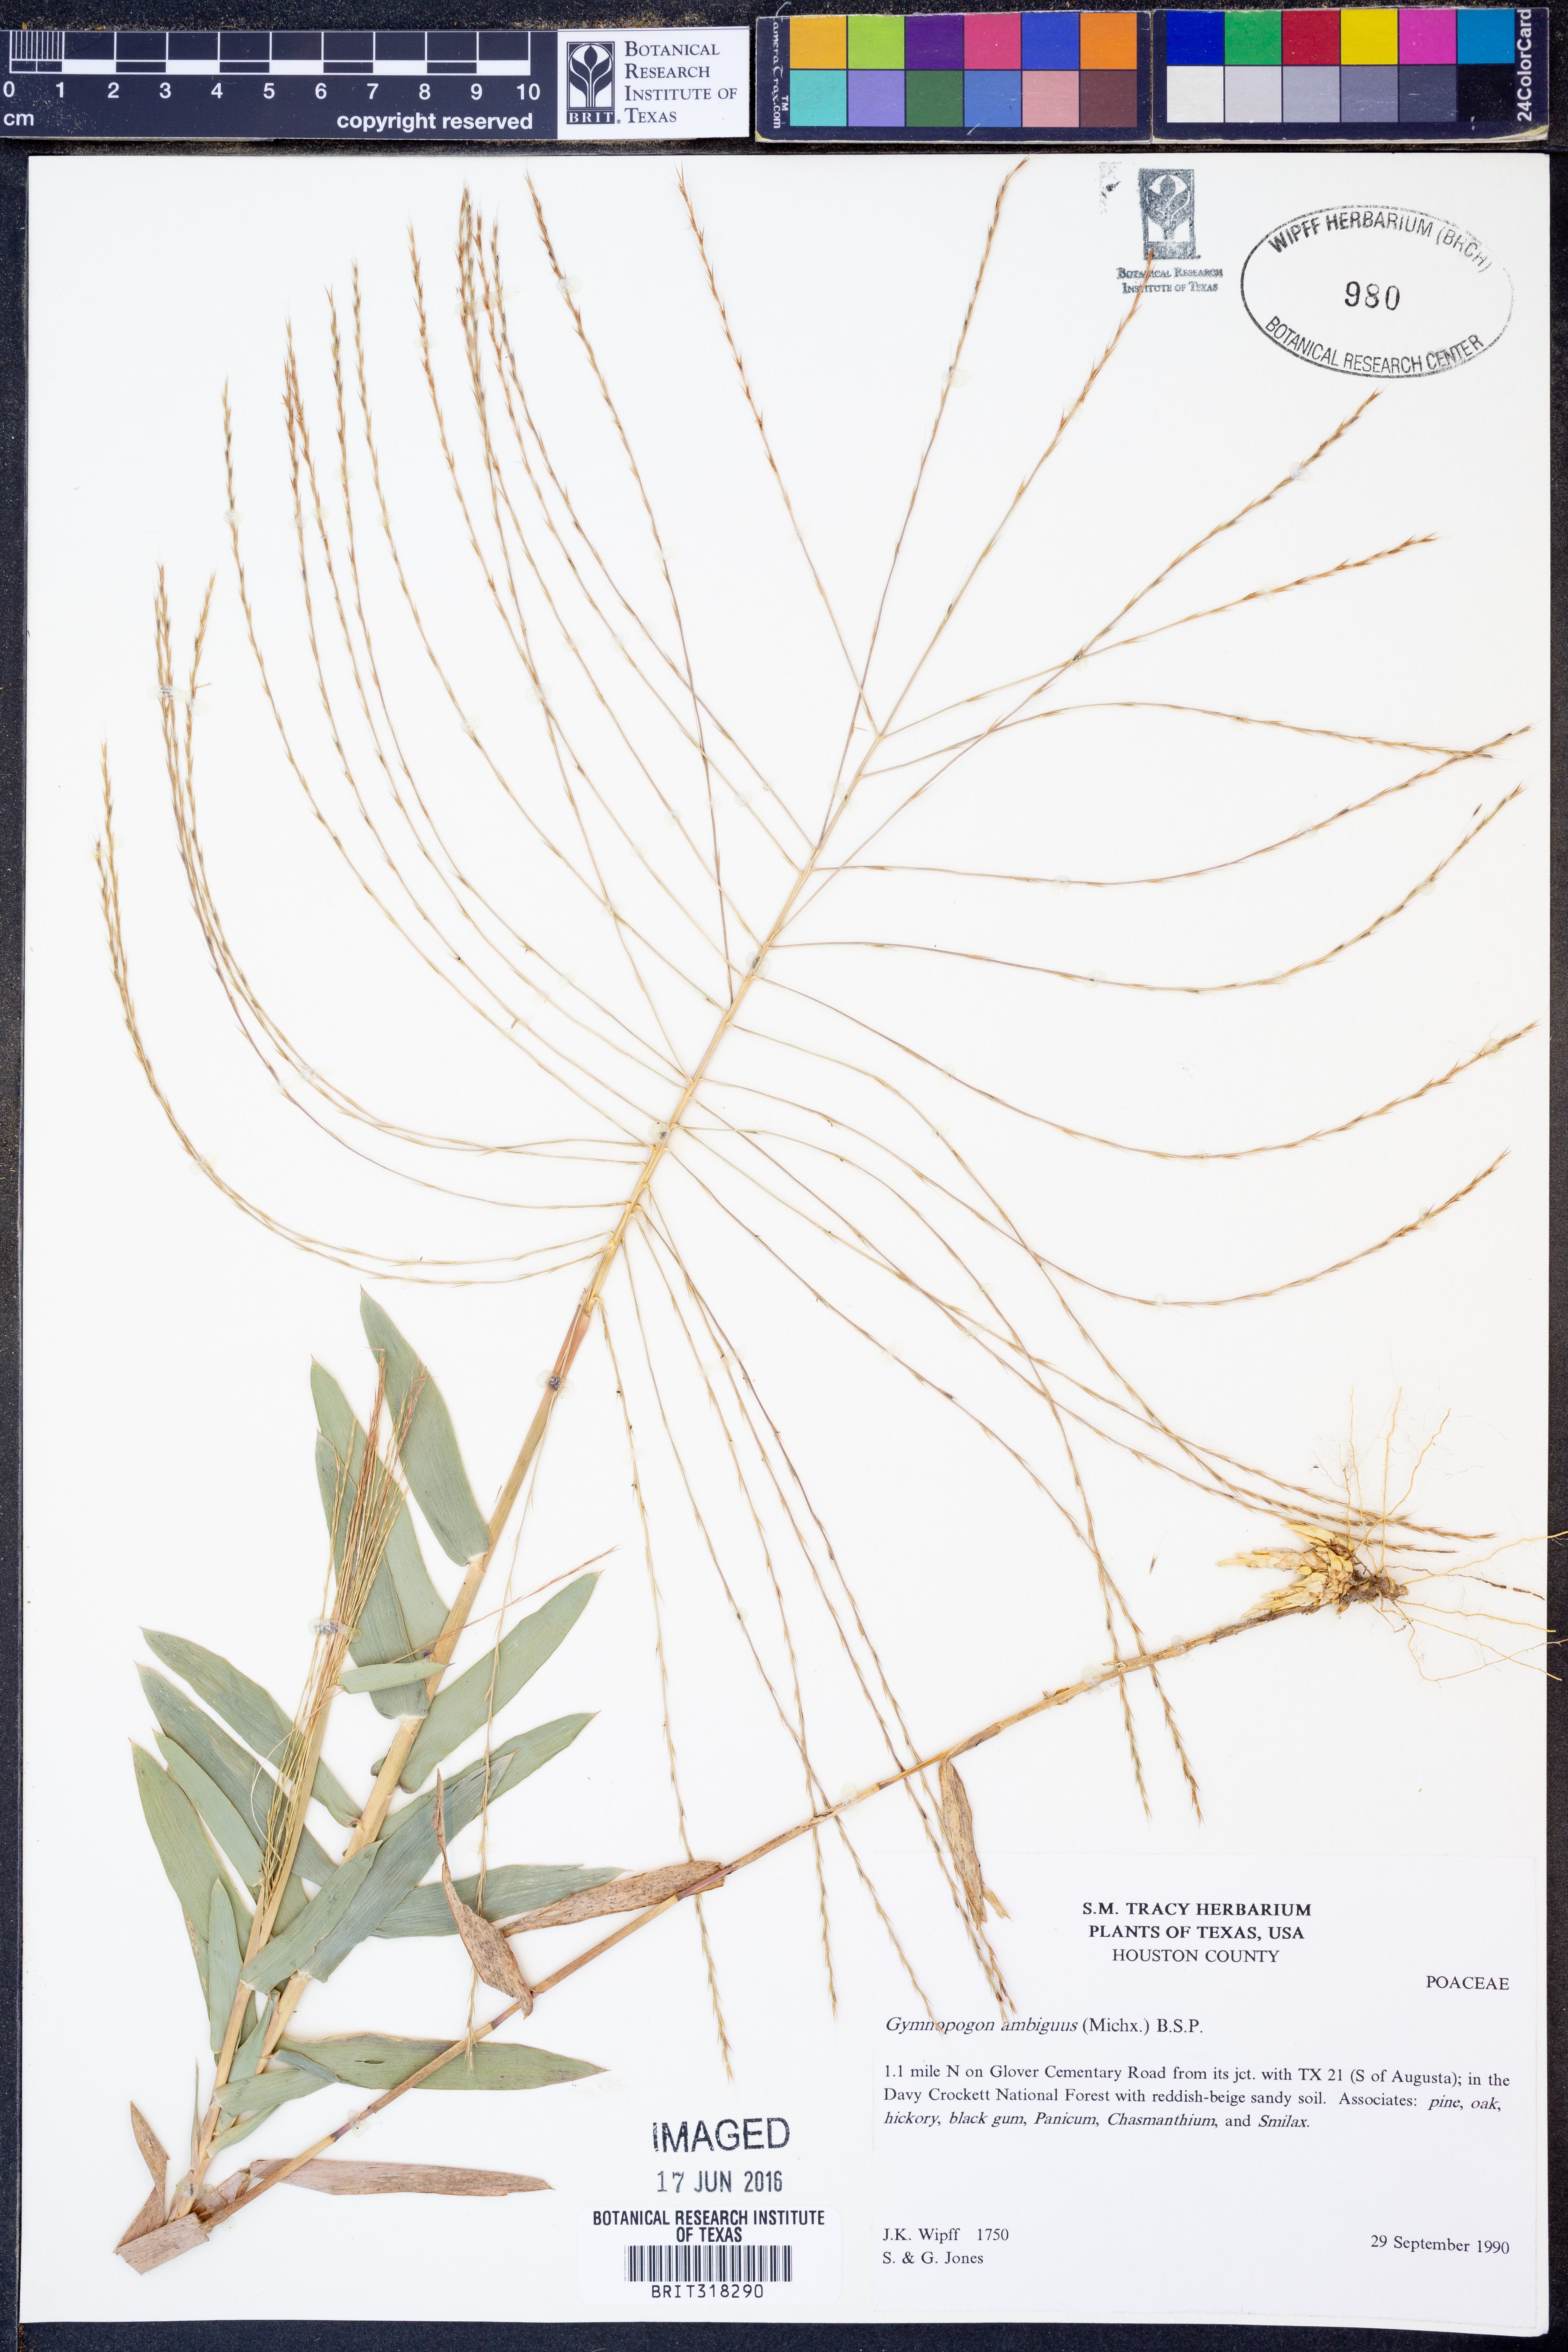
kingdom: Plantae
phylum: Tracheophyta
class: Liliopsida
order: Poales
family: Poaceae
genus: Gymnopogon
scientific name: Gymnopogon ambiguus
